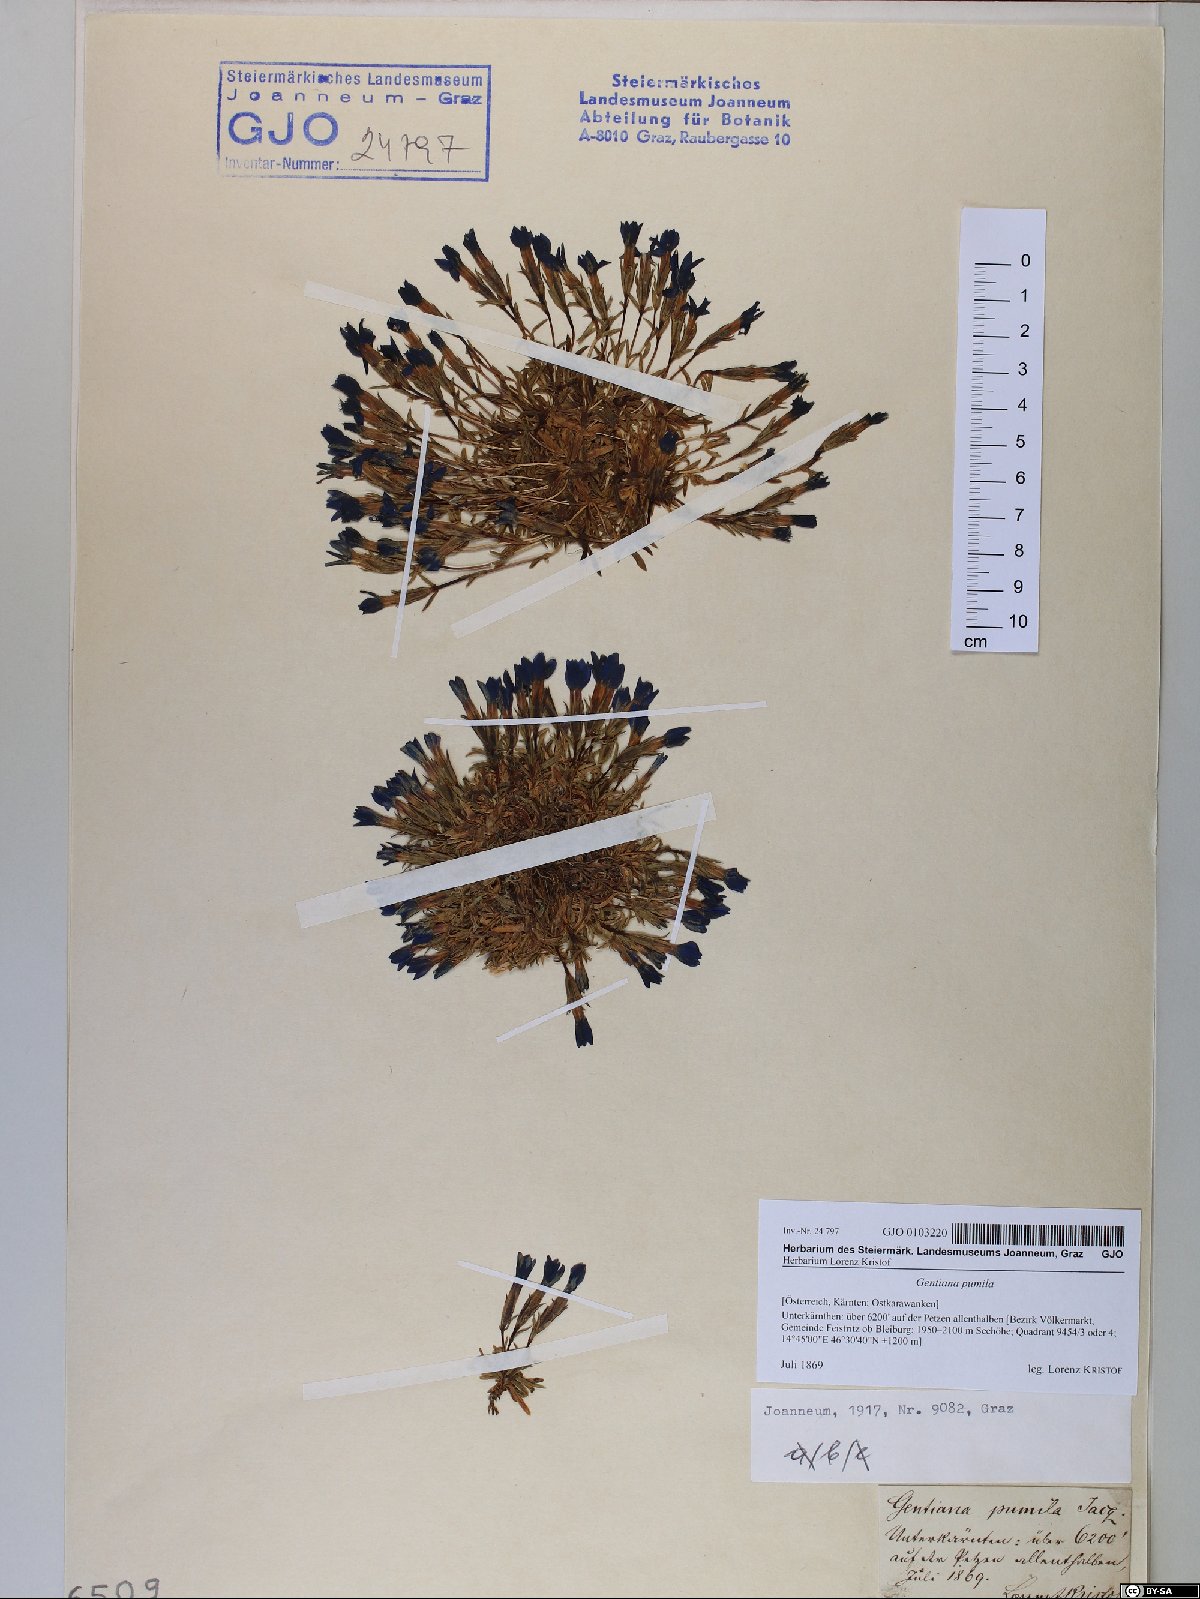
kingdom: Plantae
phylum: Tracheophyta
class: Magnoliopsida
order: Gentianales
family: Gentianaceae
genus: Gentiana
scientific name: Gentiana pumila
